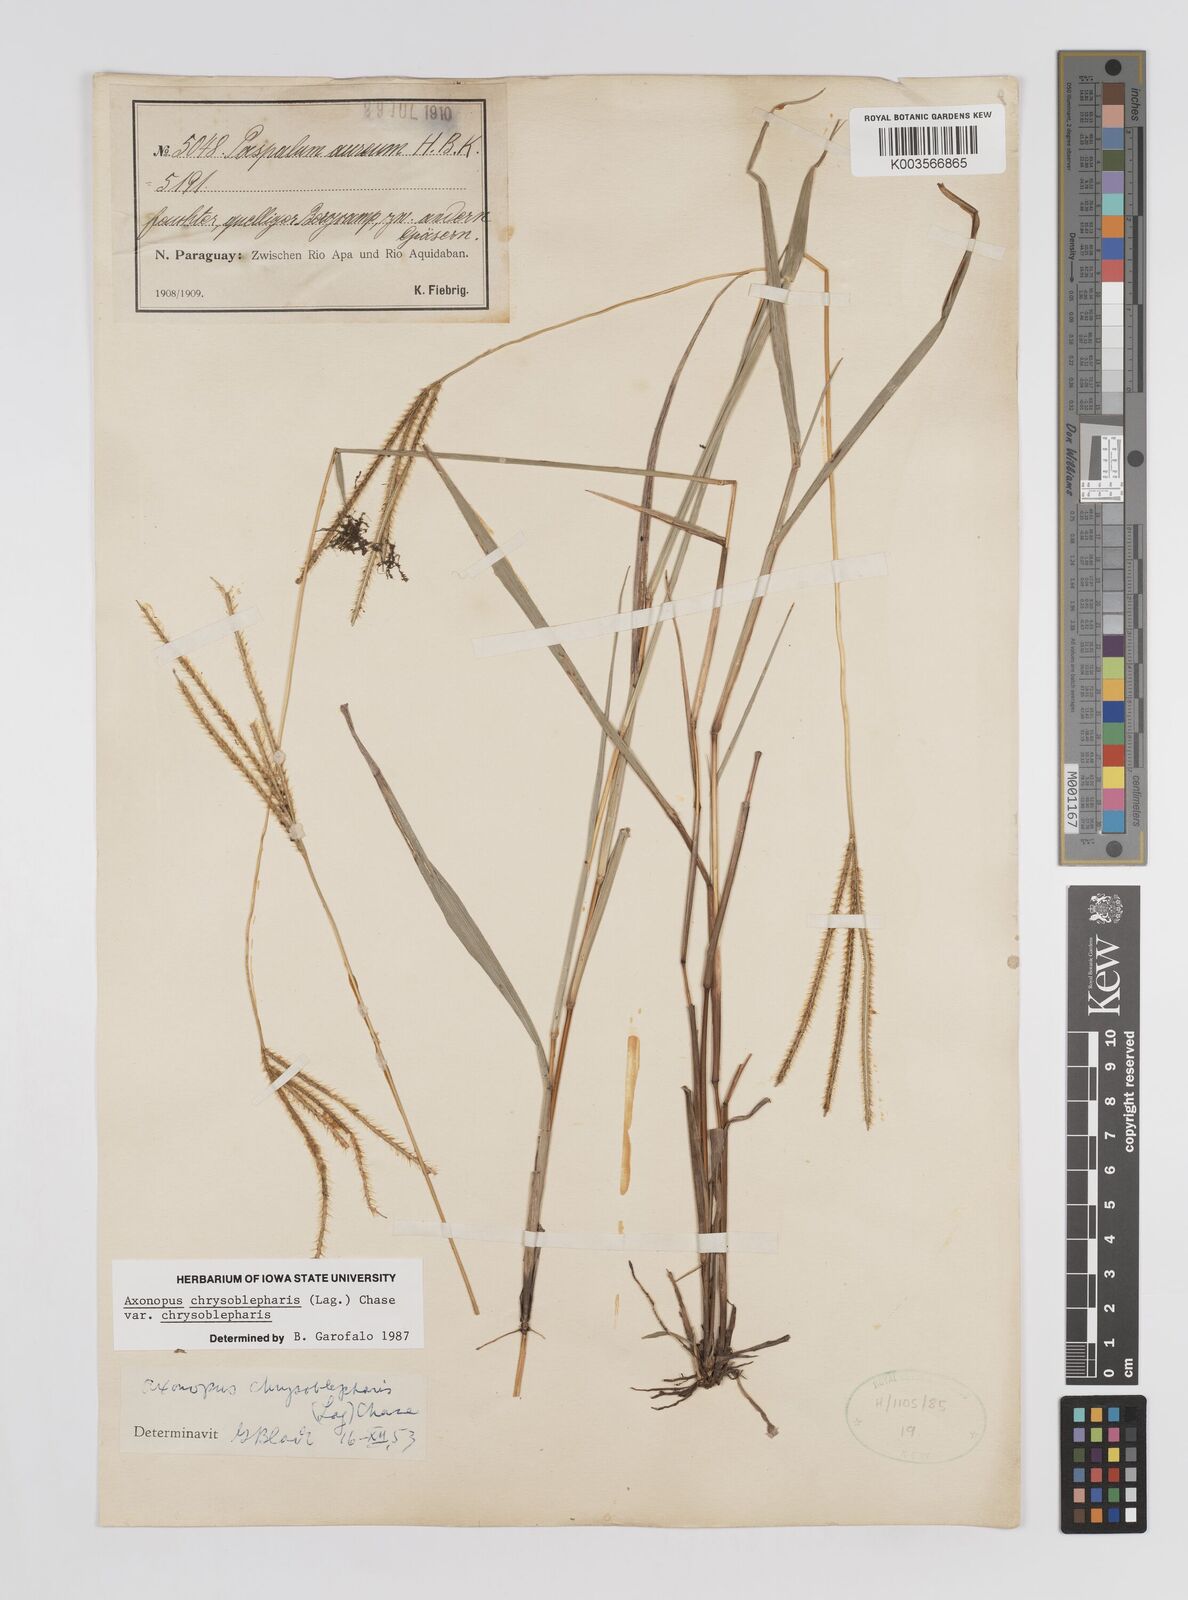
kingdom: Plantae
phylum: Tracheophyta
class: Liliopsida
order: Poales
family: Poaceae
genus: Axonopus
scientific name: Axonopus chrysoblepharis
